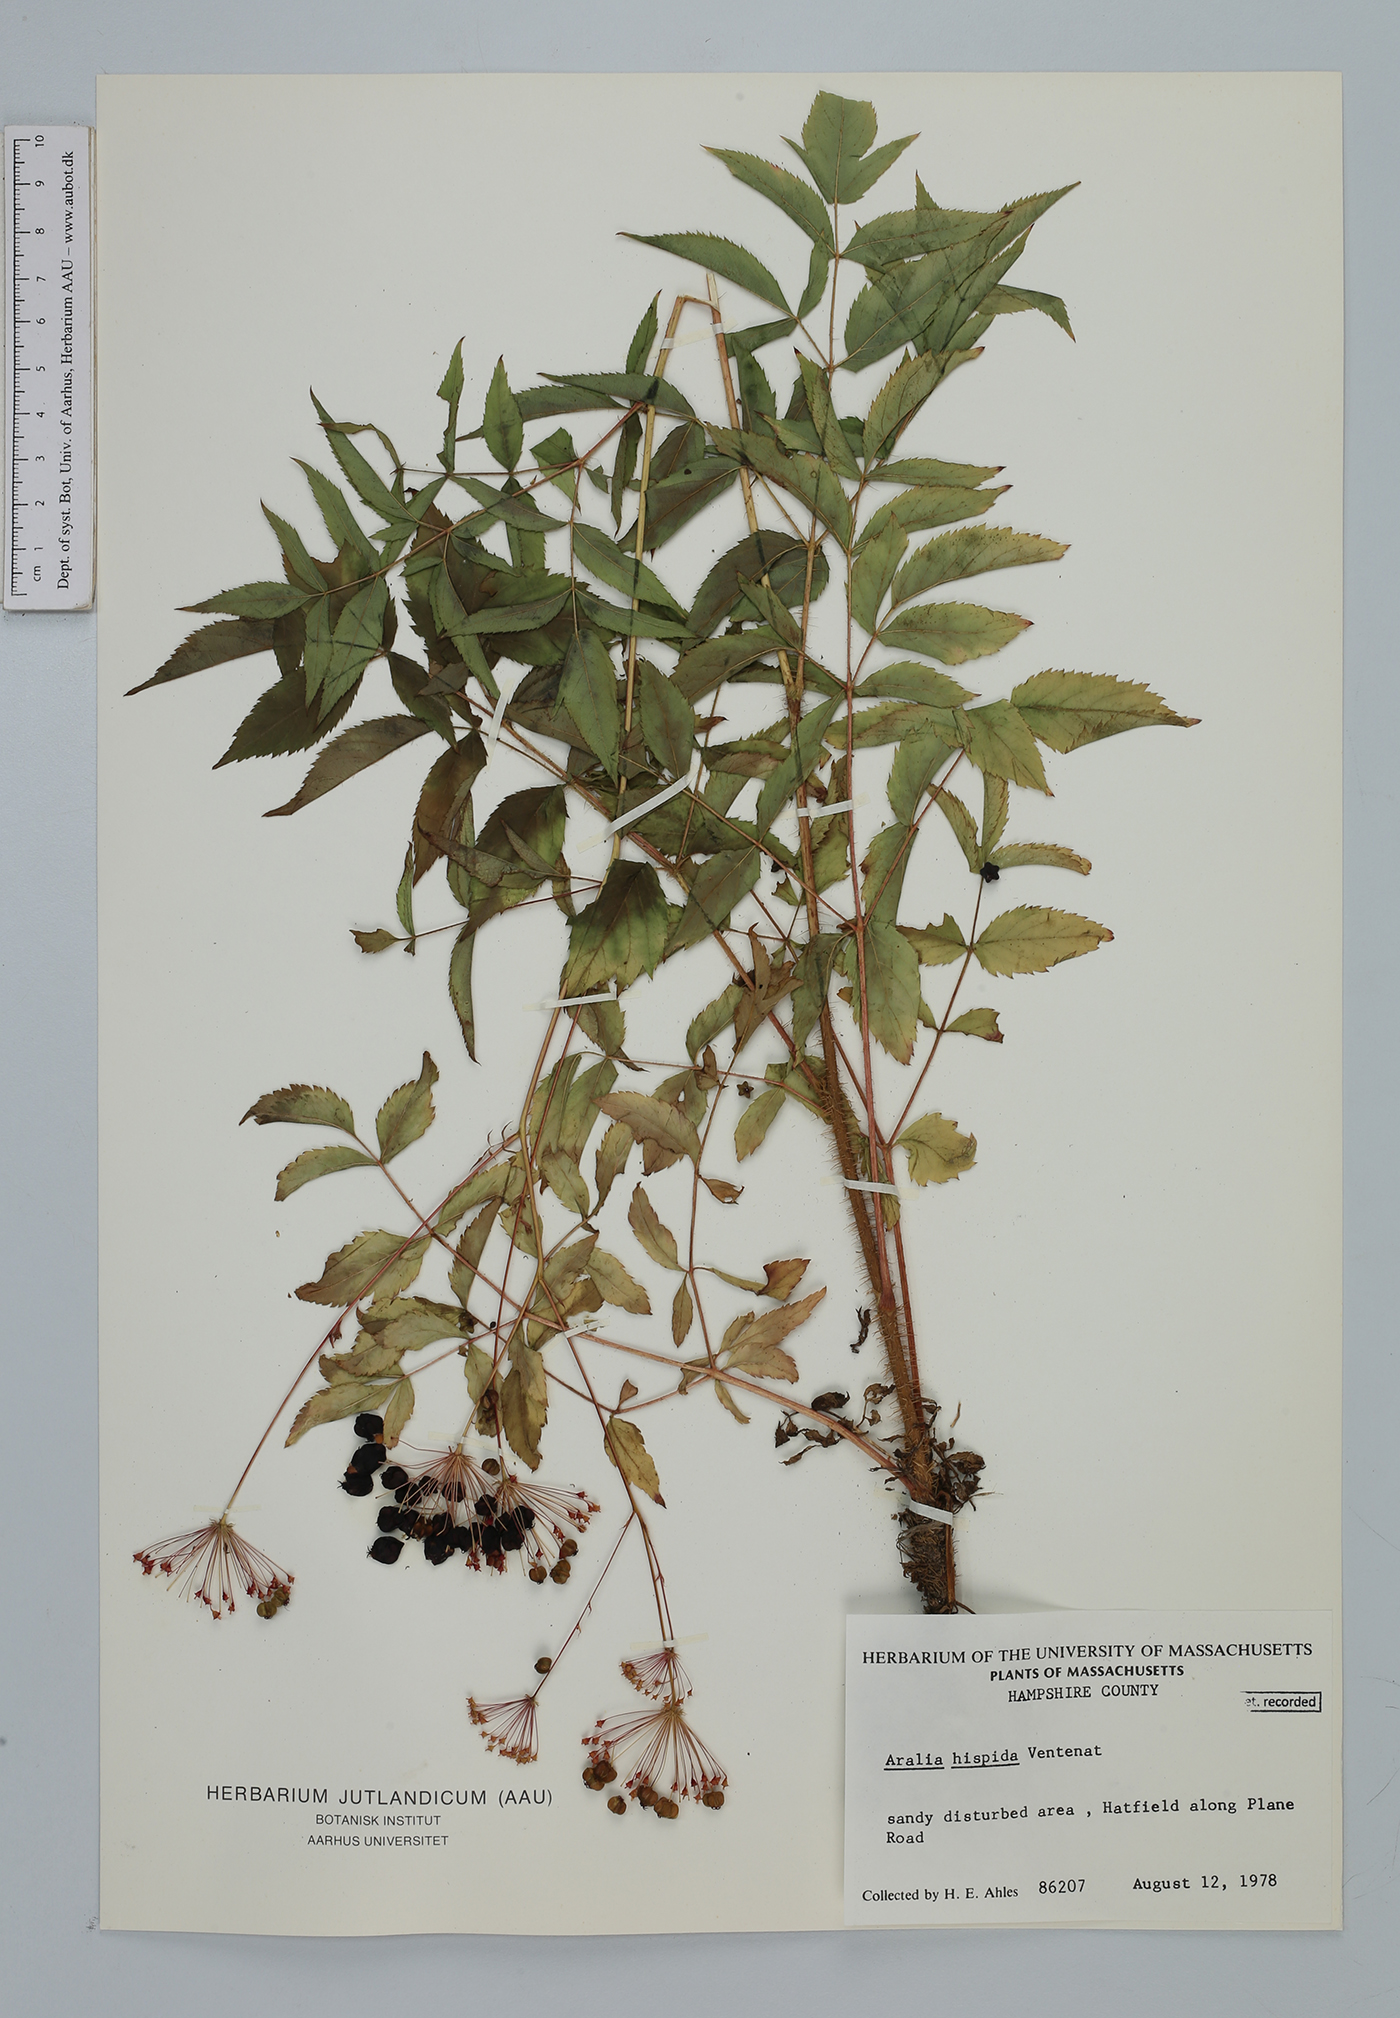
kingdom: Plantae
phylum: Tracheophyta
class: Magnoliopsida
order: Apiales
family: Araliaceae
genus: Aralia
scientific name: Aralia hispida
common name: Bristly sarsaparilla
